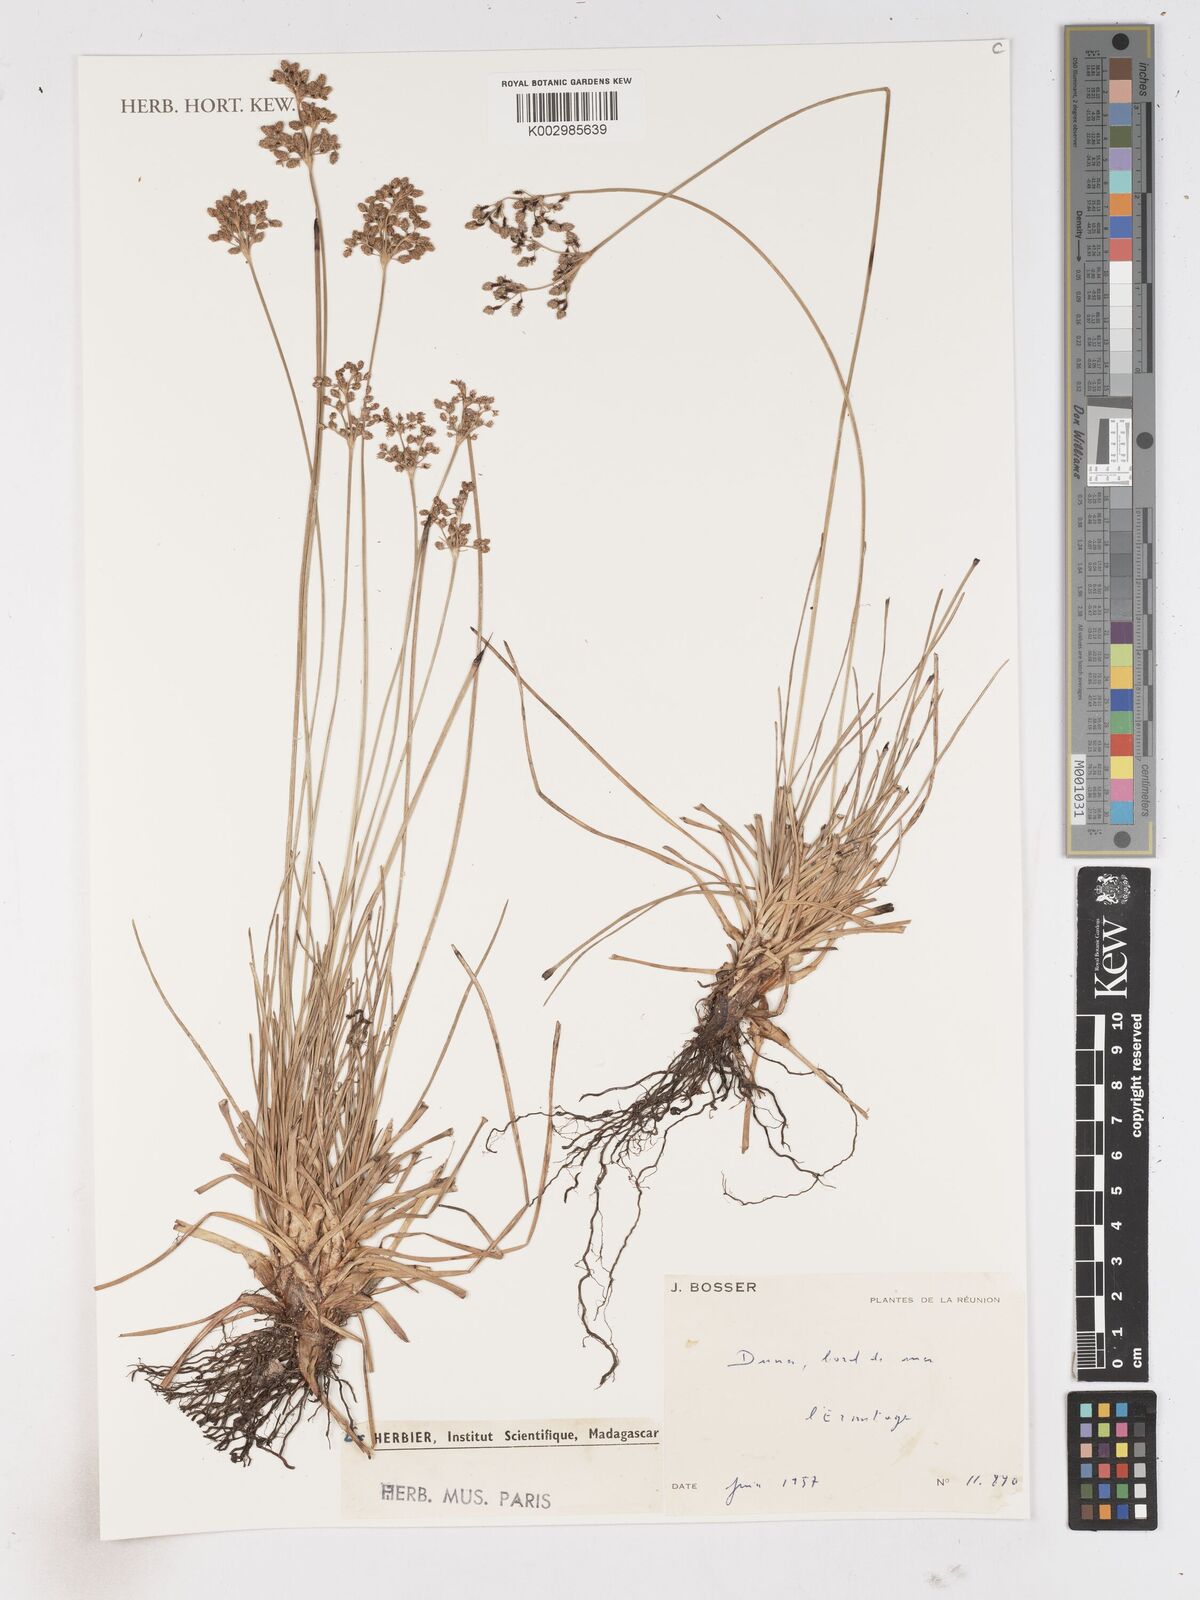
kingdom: Plantae
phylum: Tracheophyta
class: Liliopsida
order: Poales
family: Cyperaceae
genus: Fimbristylis
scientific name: Fimbristylis littoralis
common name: Fimbry
